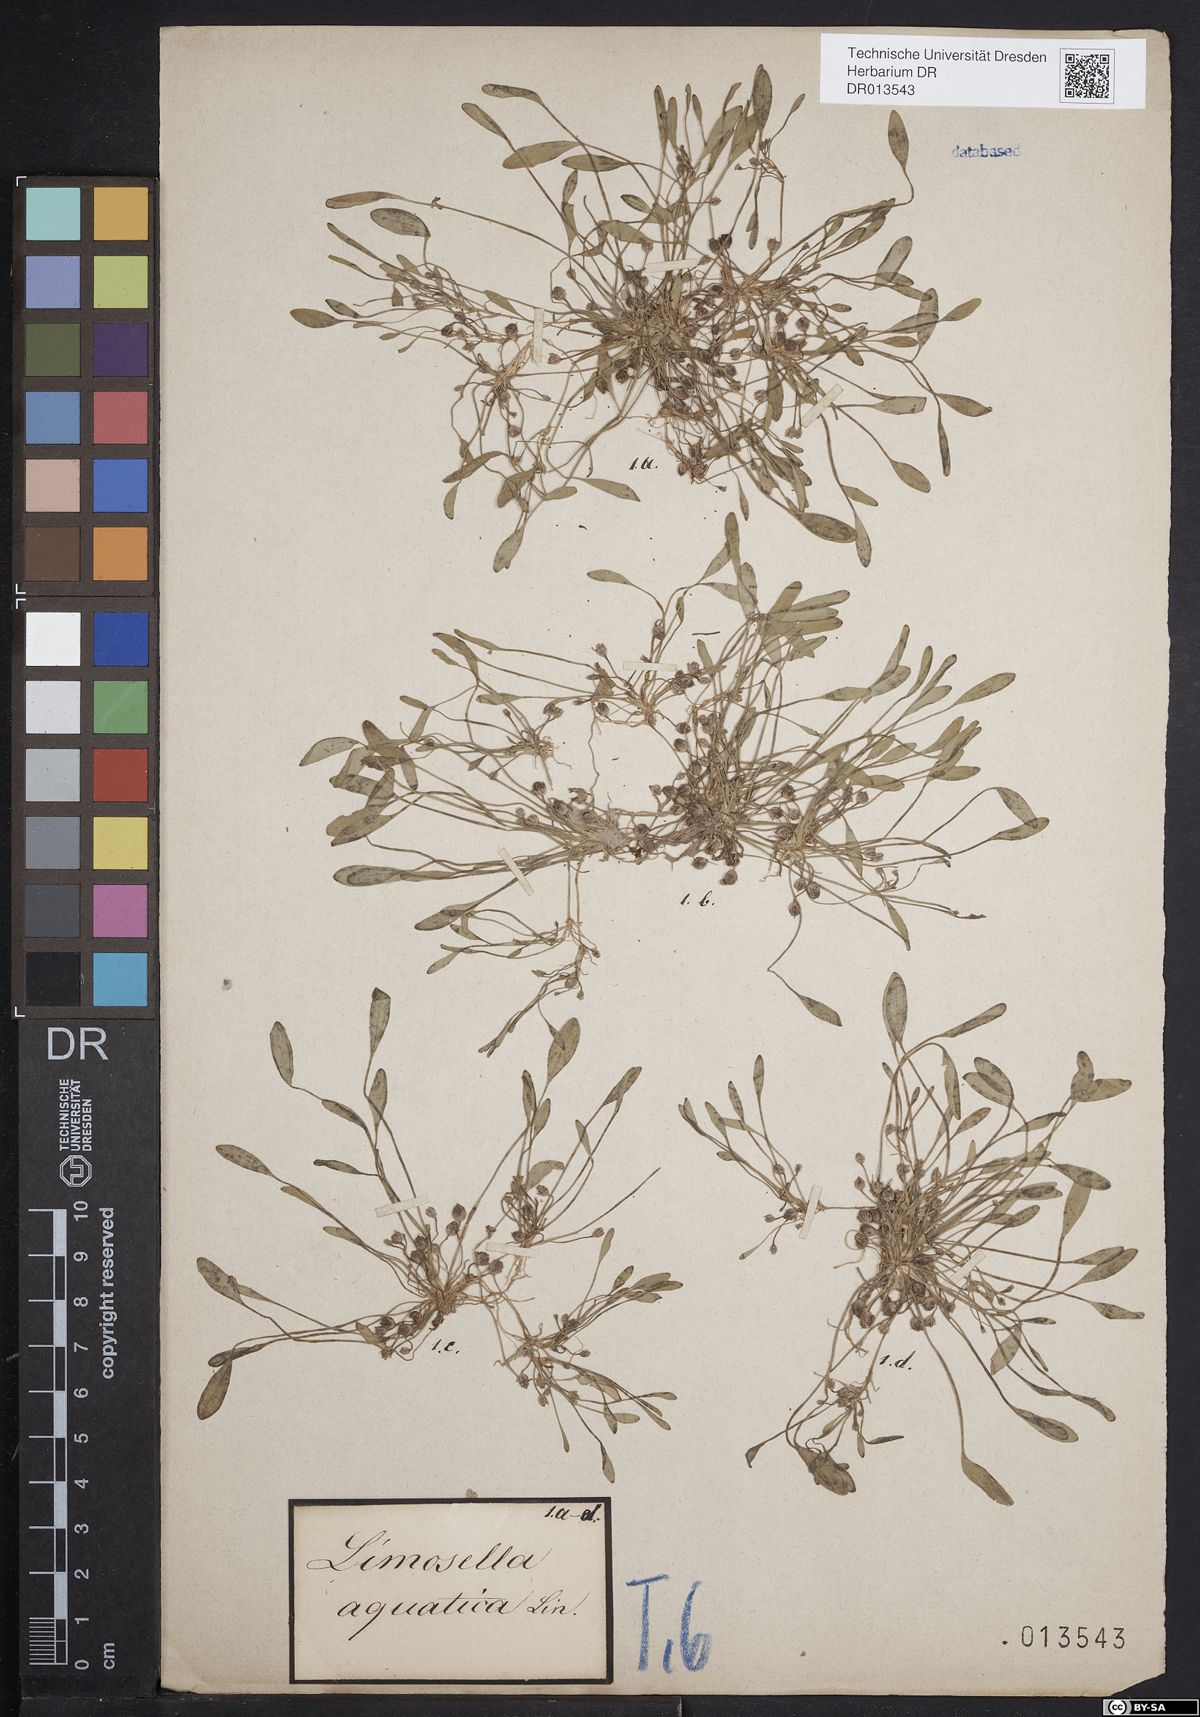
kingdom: Plantae
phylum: Tracheophyta
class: Magnoliopsida
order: Lamiales
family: Scrophulariaceae
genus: Limosella
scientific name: Limosella aquatica
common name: Mudwort
